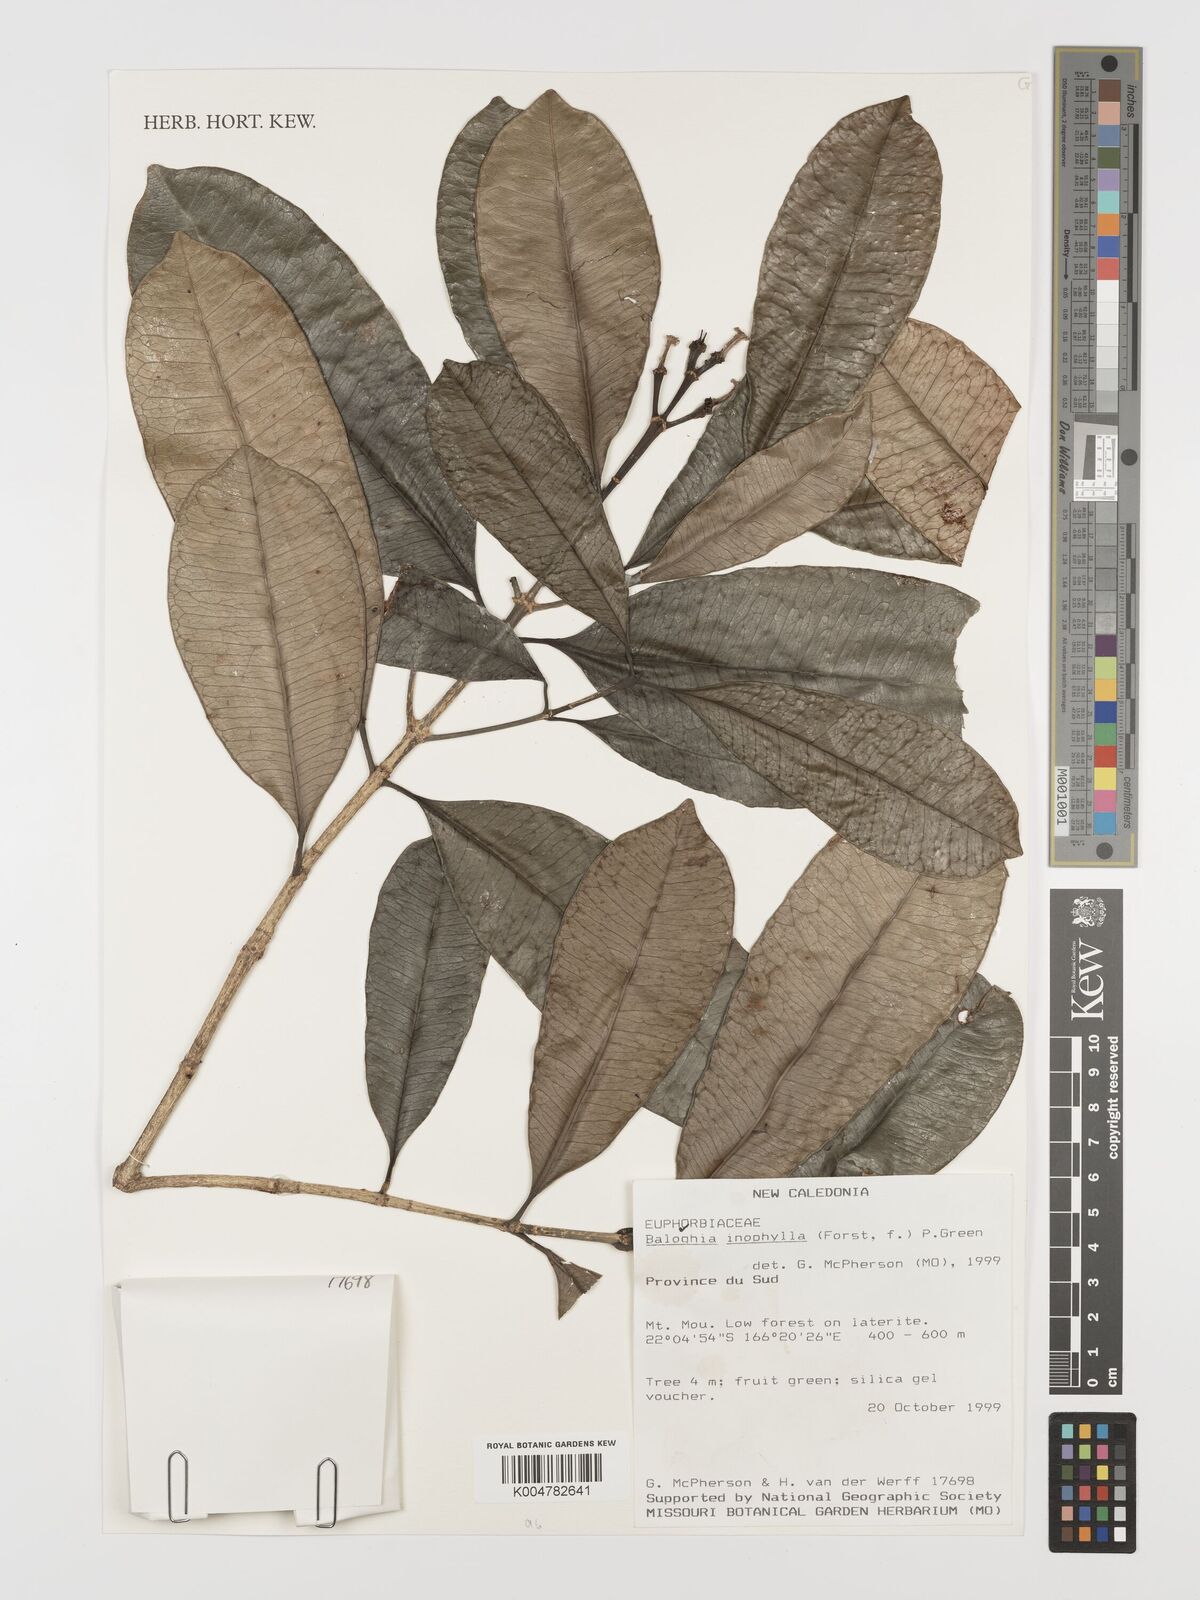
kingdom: Plantae
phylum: Tracheophyta
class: Magnoliopsida
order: Malpighiales
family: Euphorbiaceae
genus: Baloghia
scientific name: Baloghia inophylla
